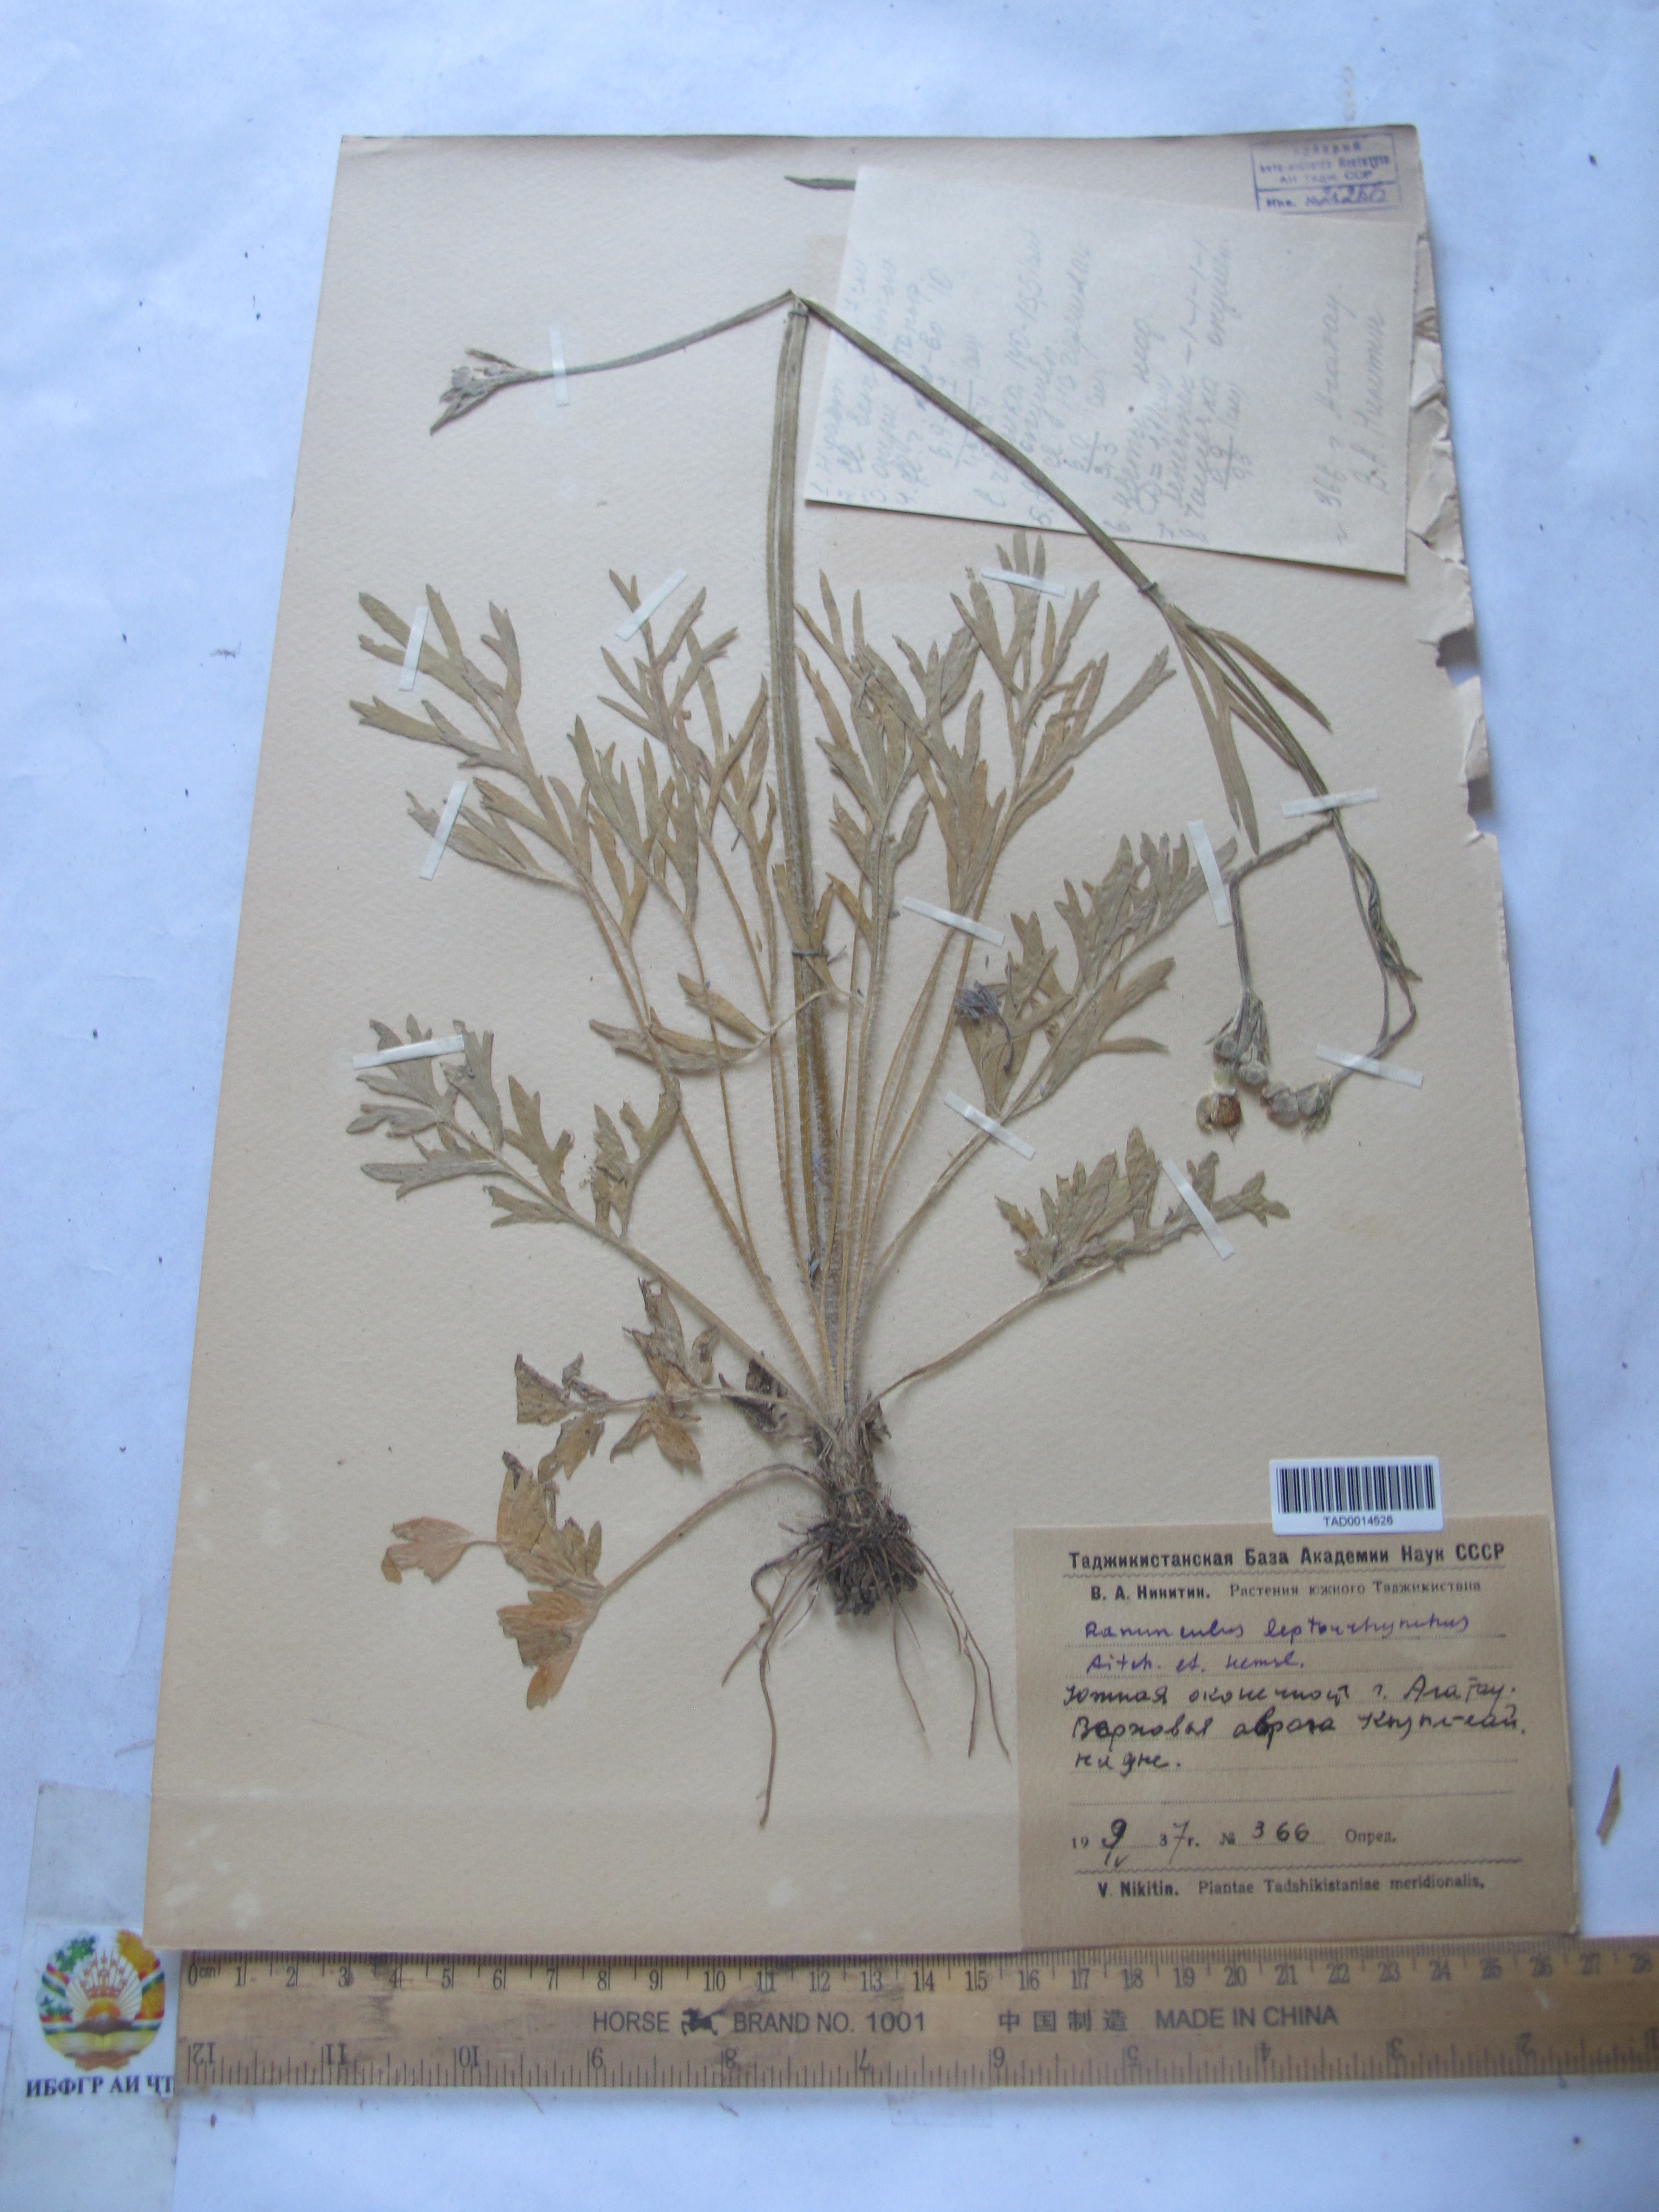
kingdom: Plantae
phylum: Tracheophyta
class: Magnoliopsida
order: Ranunculales
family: Ranunculaceae
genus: Ranunculus
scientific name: Ranunculus leptorrhynchus
